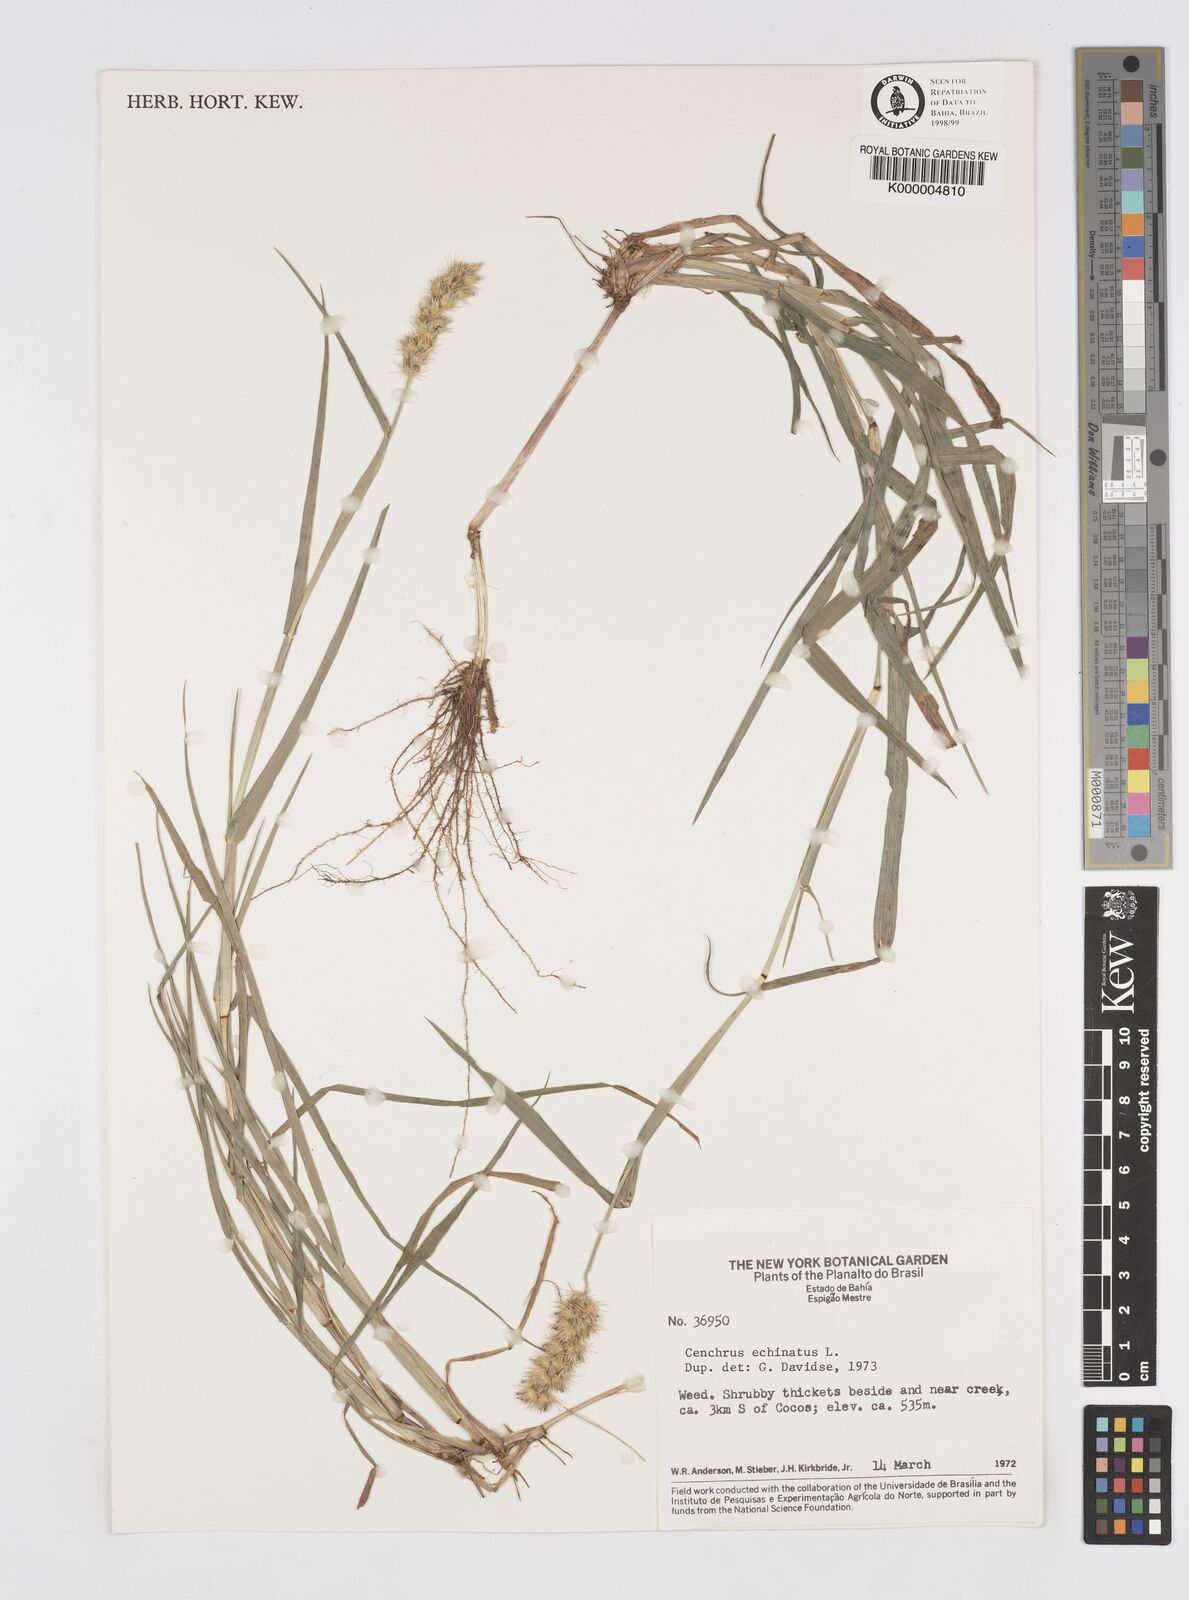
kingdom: Plantae
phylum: Tracheophyta
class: Liliopsida
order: Poales
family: Poaceae
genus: Cenchrus
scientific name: Cenchrus echinatus
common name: Southern sandbur
